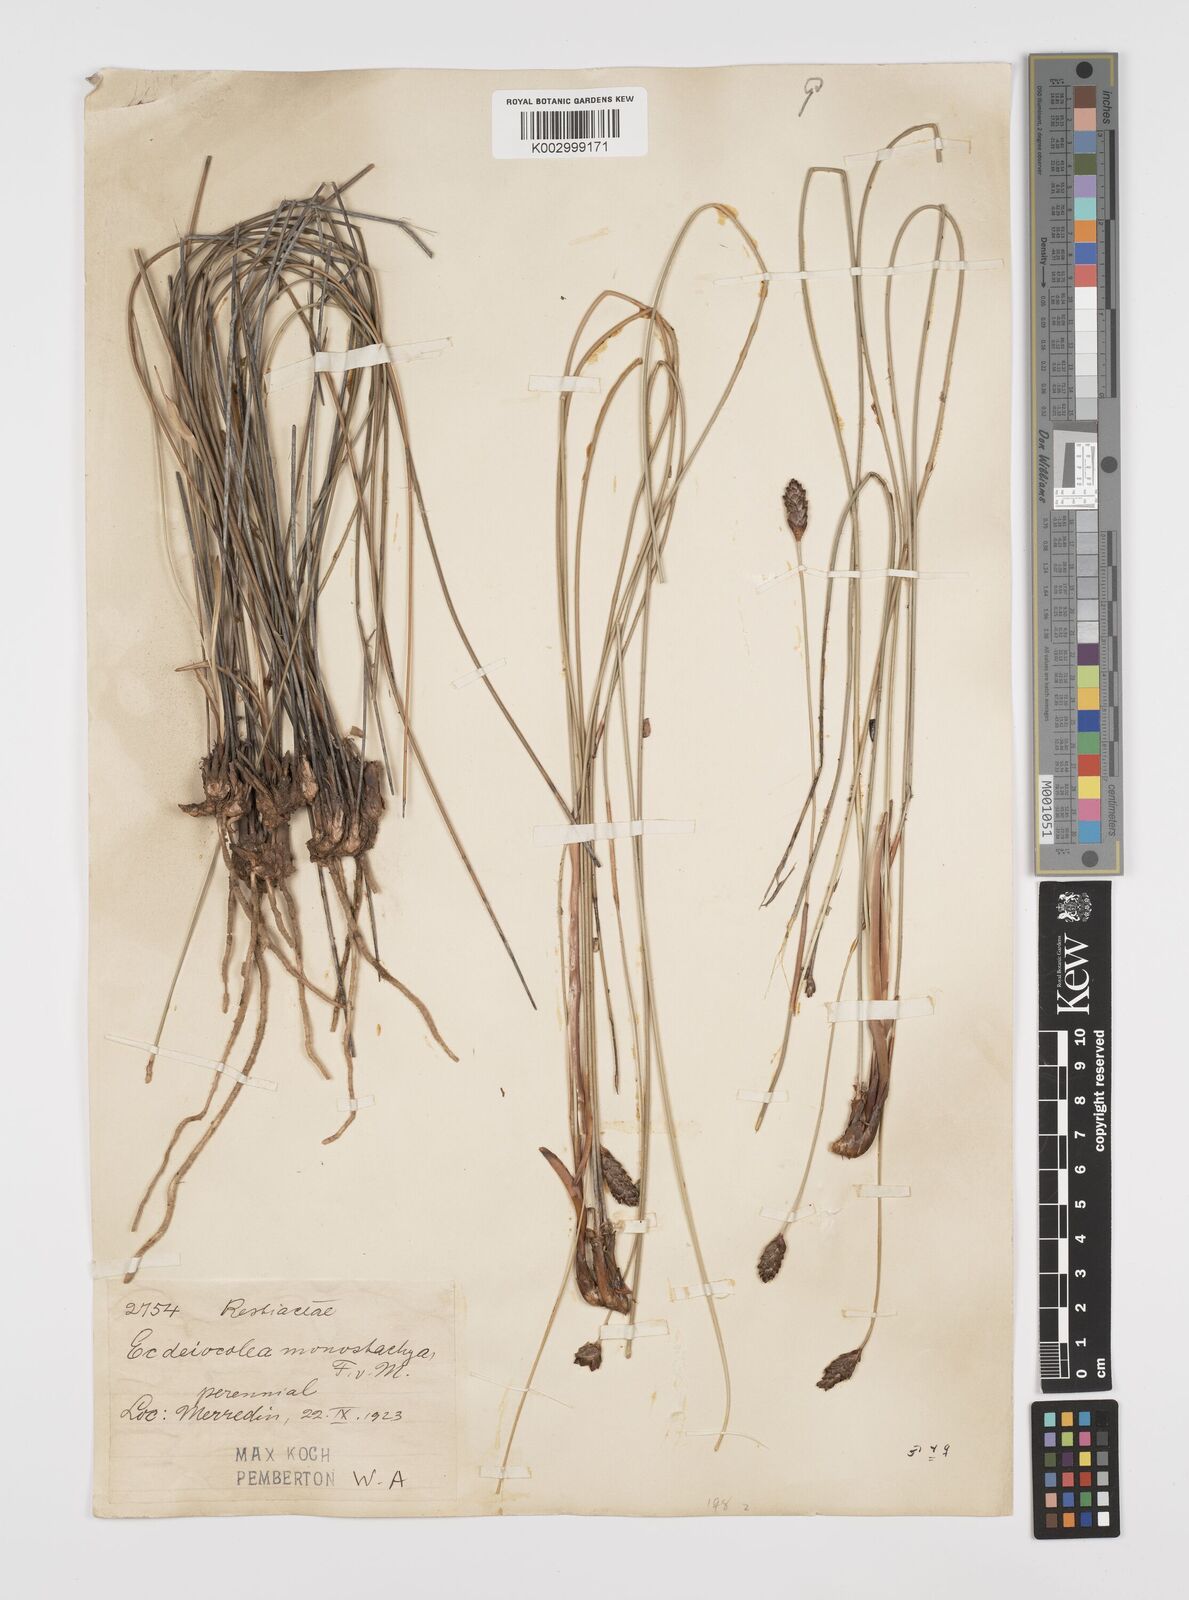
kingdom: Plantae
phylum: Tracheophyta
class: Liliopsida
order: Poales
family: Ecdeiocoleaceae
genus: Ecdeiocolea
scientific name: Ecdeiocolea monostachya
